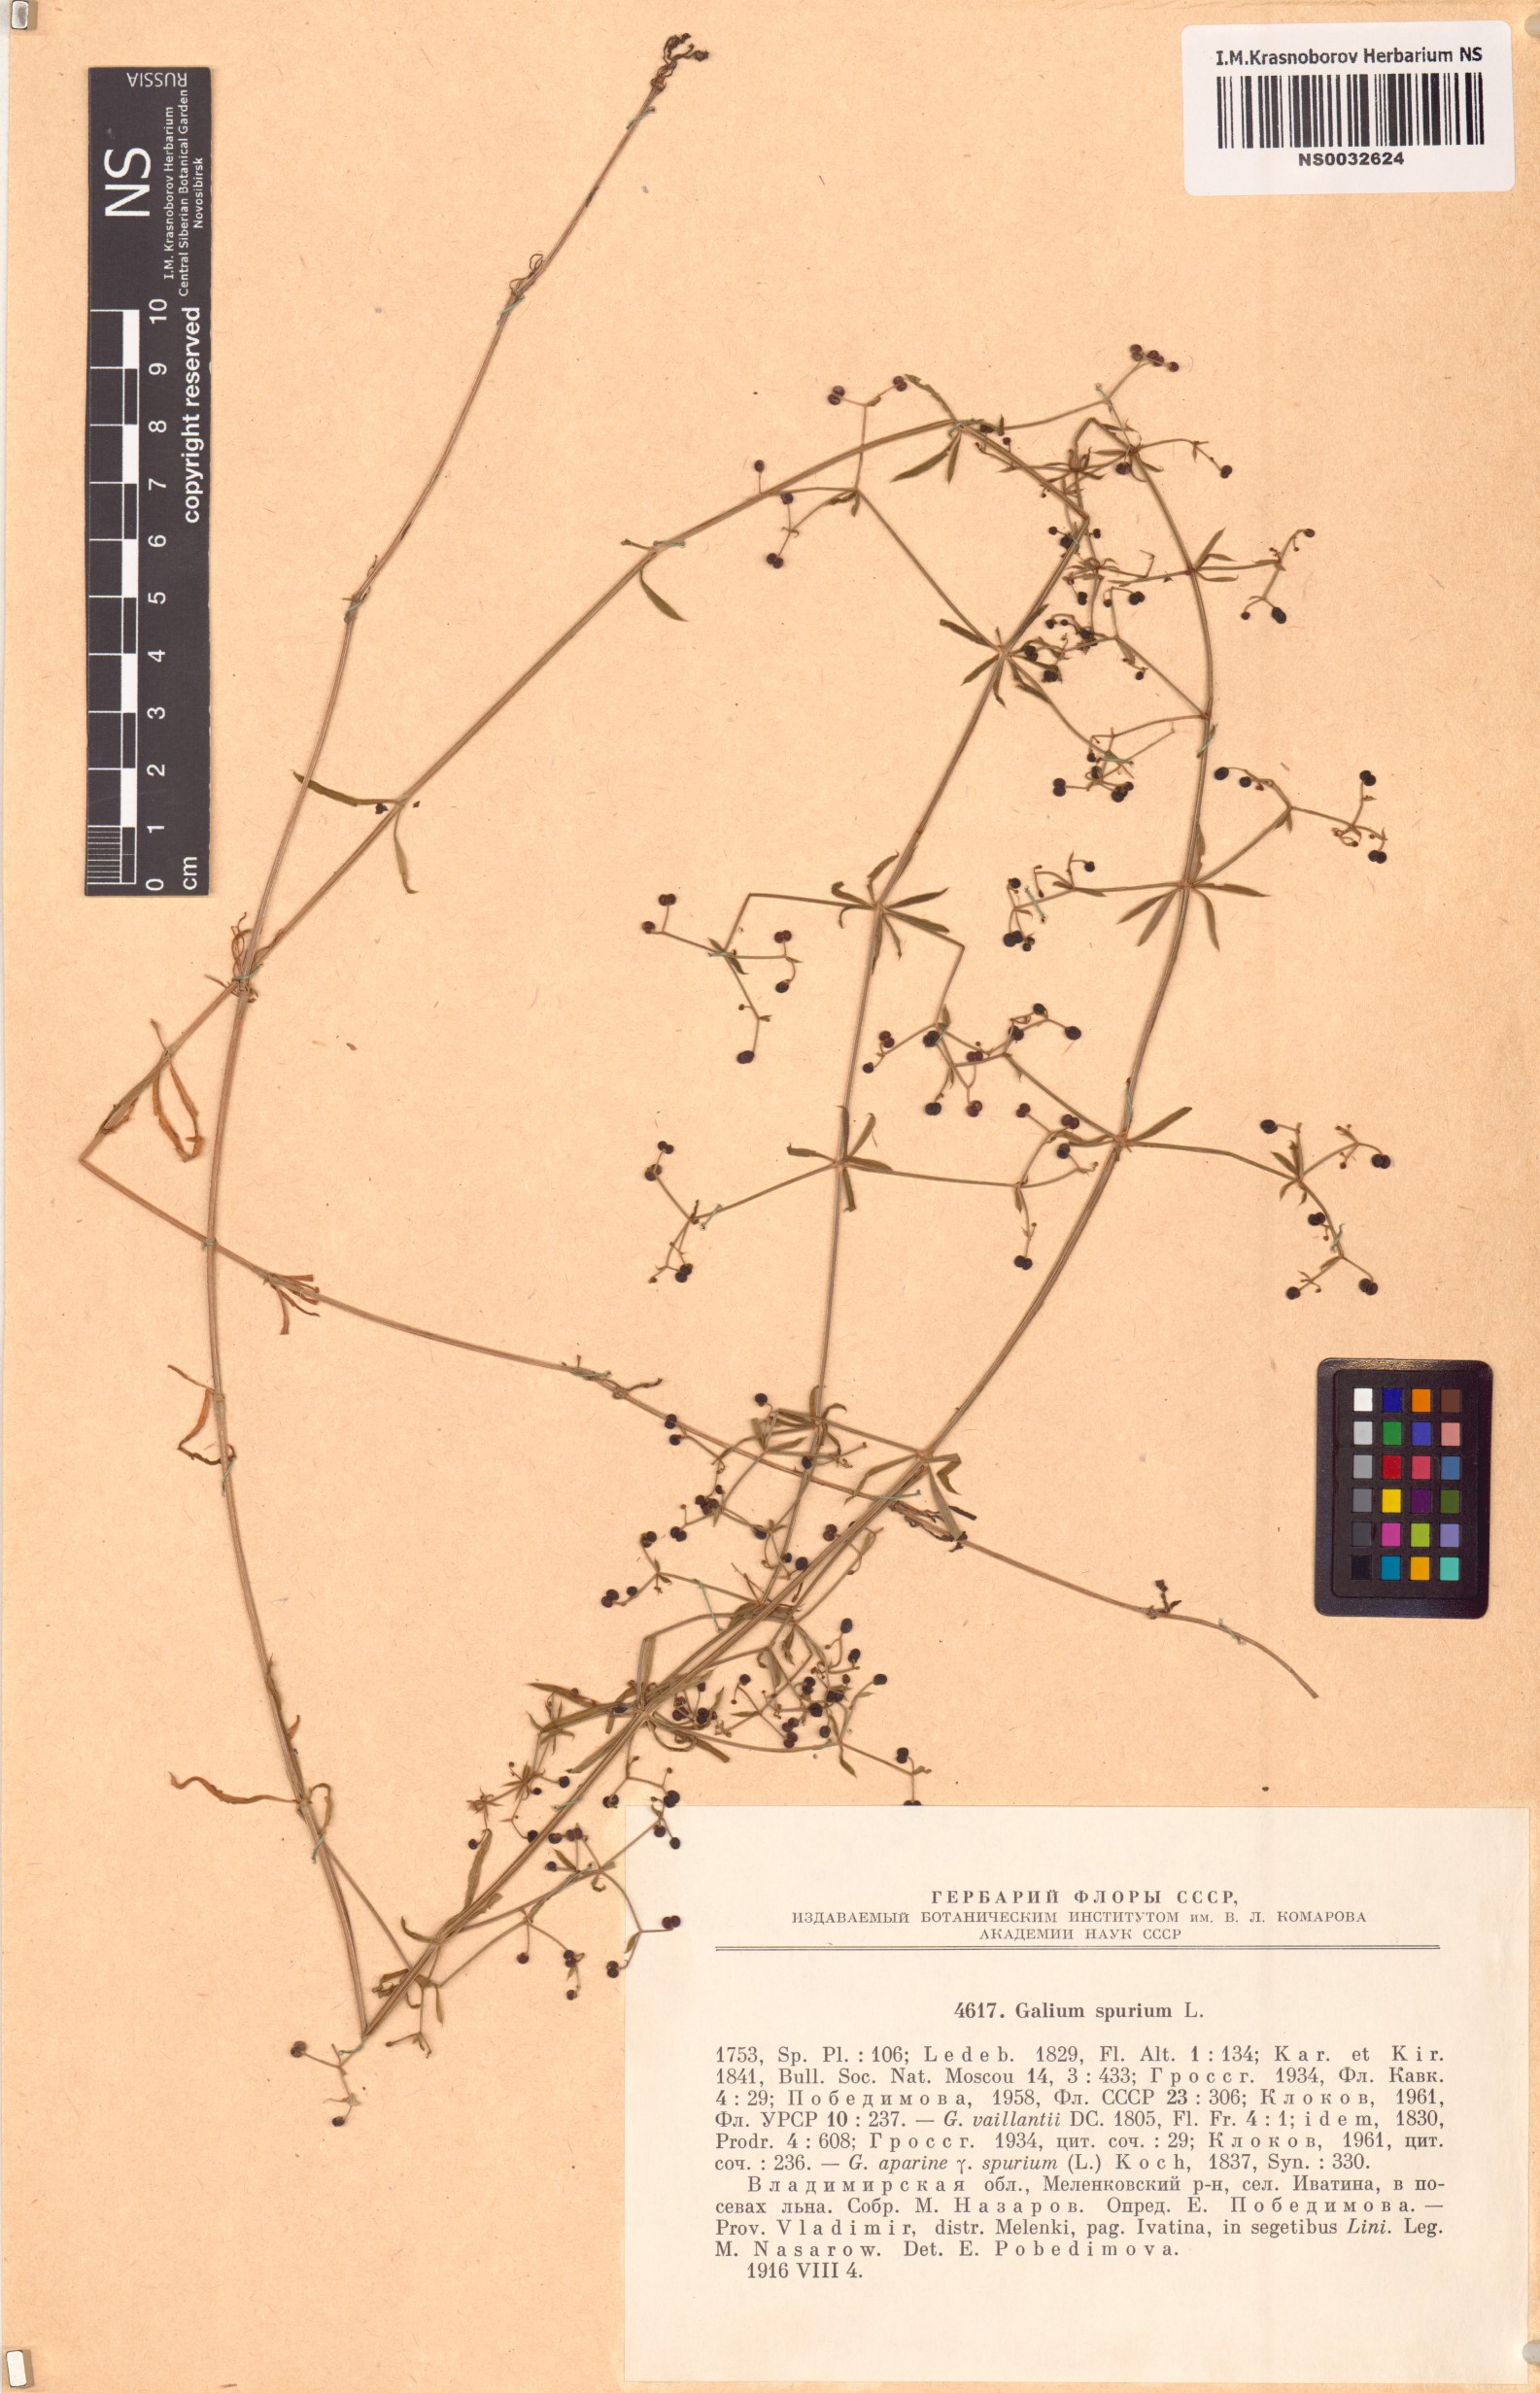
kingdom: Plantae
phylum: Tracheophyta
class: Magnoliopsida
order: Gentianales
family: Rubiaceae
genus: Galium
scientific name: Galium spurium
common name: False cleavers
